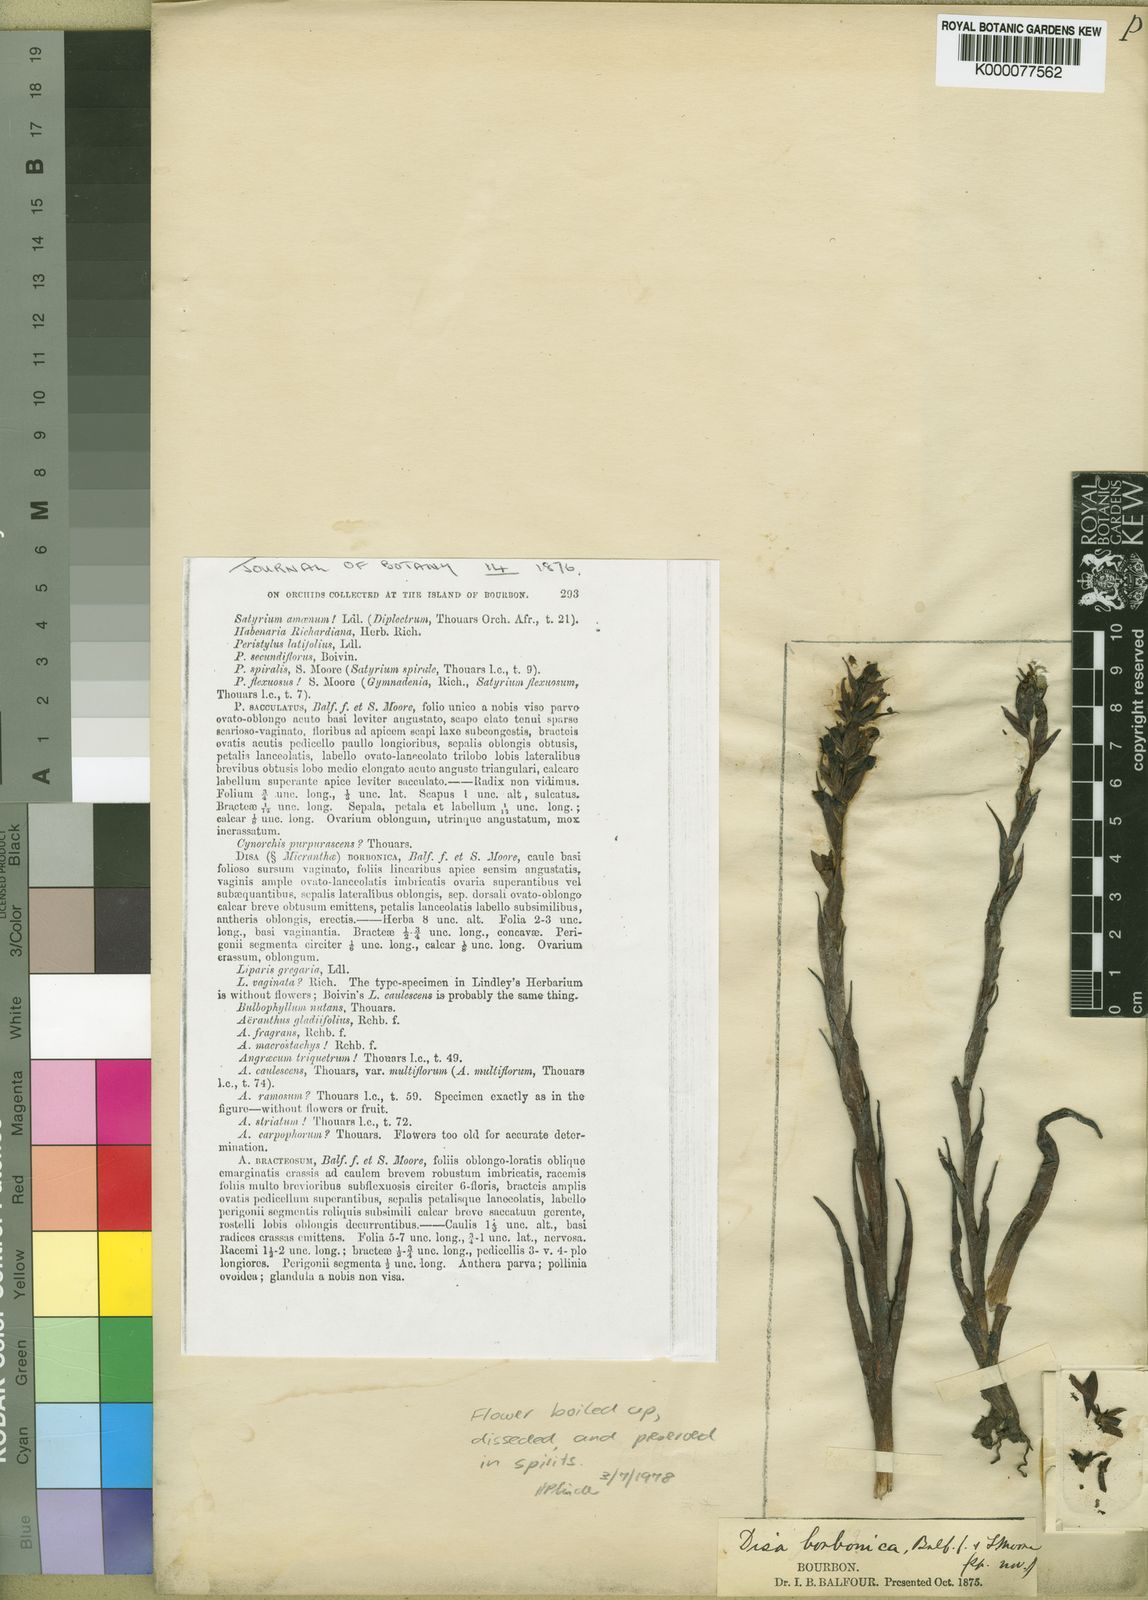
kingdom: Plantae
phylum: Tracheophyta
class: Liliopsida
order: Asparagales
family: Orchidaceae
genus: Disa
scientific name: Disa borbonica
